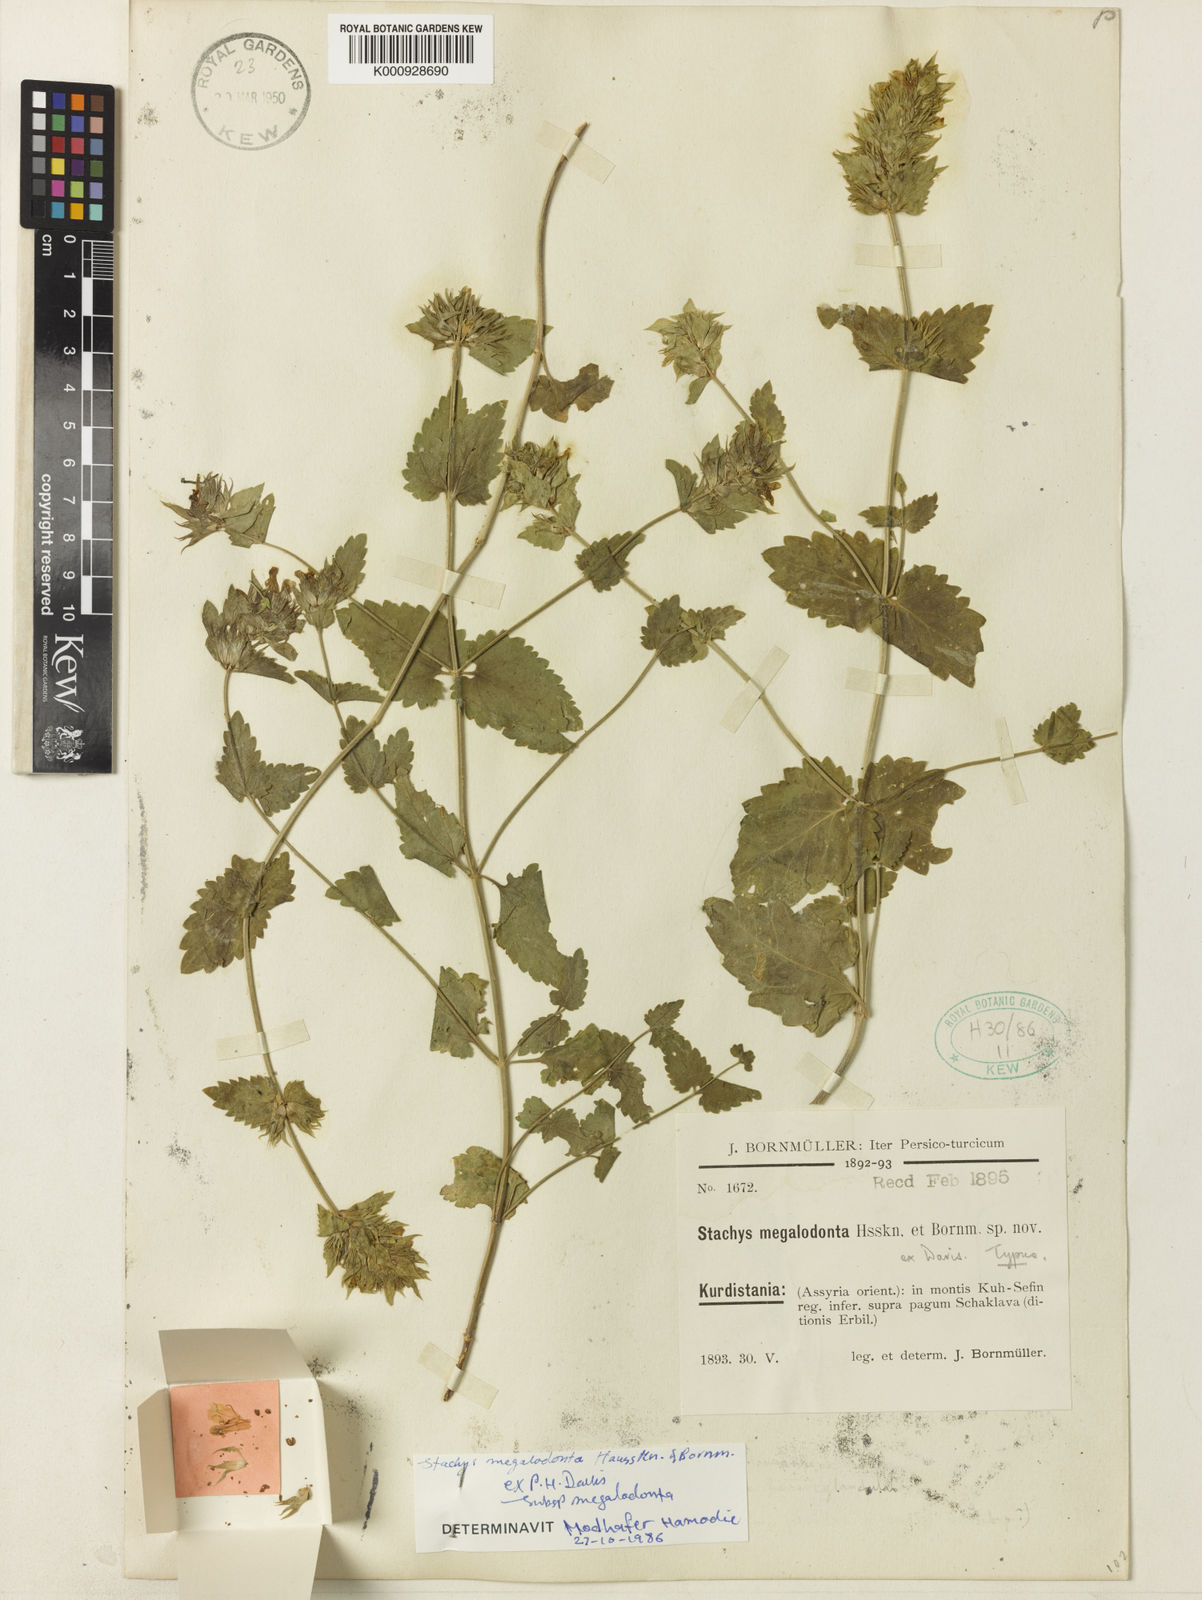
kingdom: Plantae
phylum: Tracheophyta
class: Magnoliopsida
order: Lamiales
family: Lamiaceae
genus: Stachys
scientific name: Stachys megalodonta
